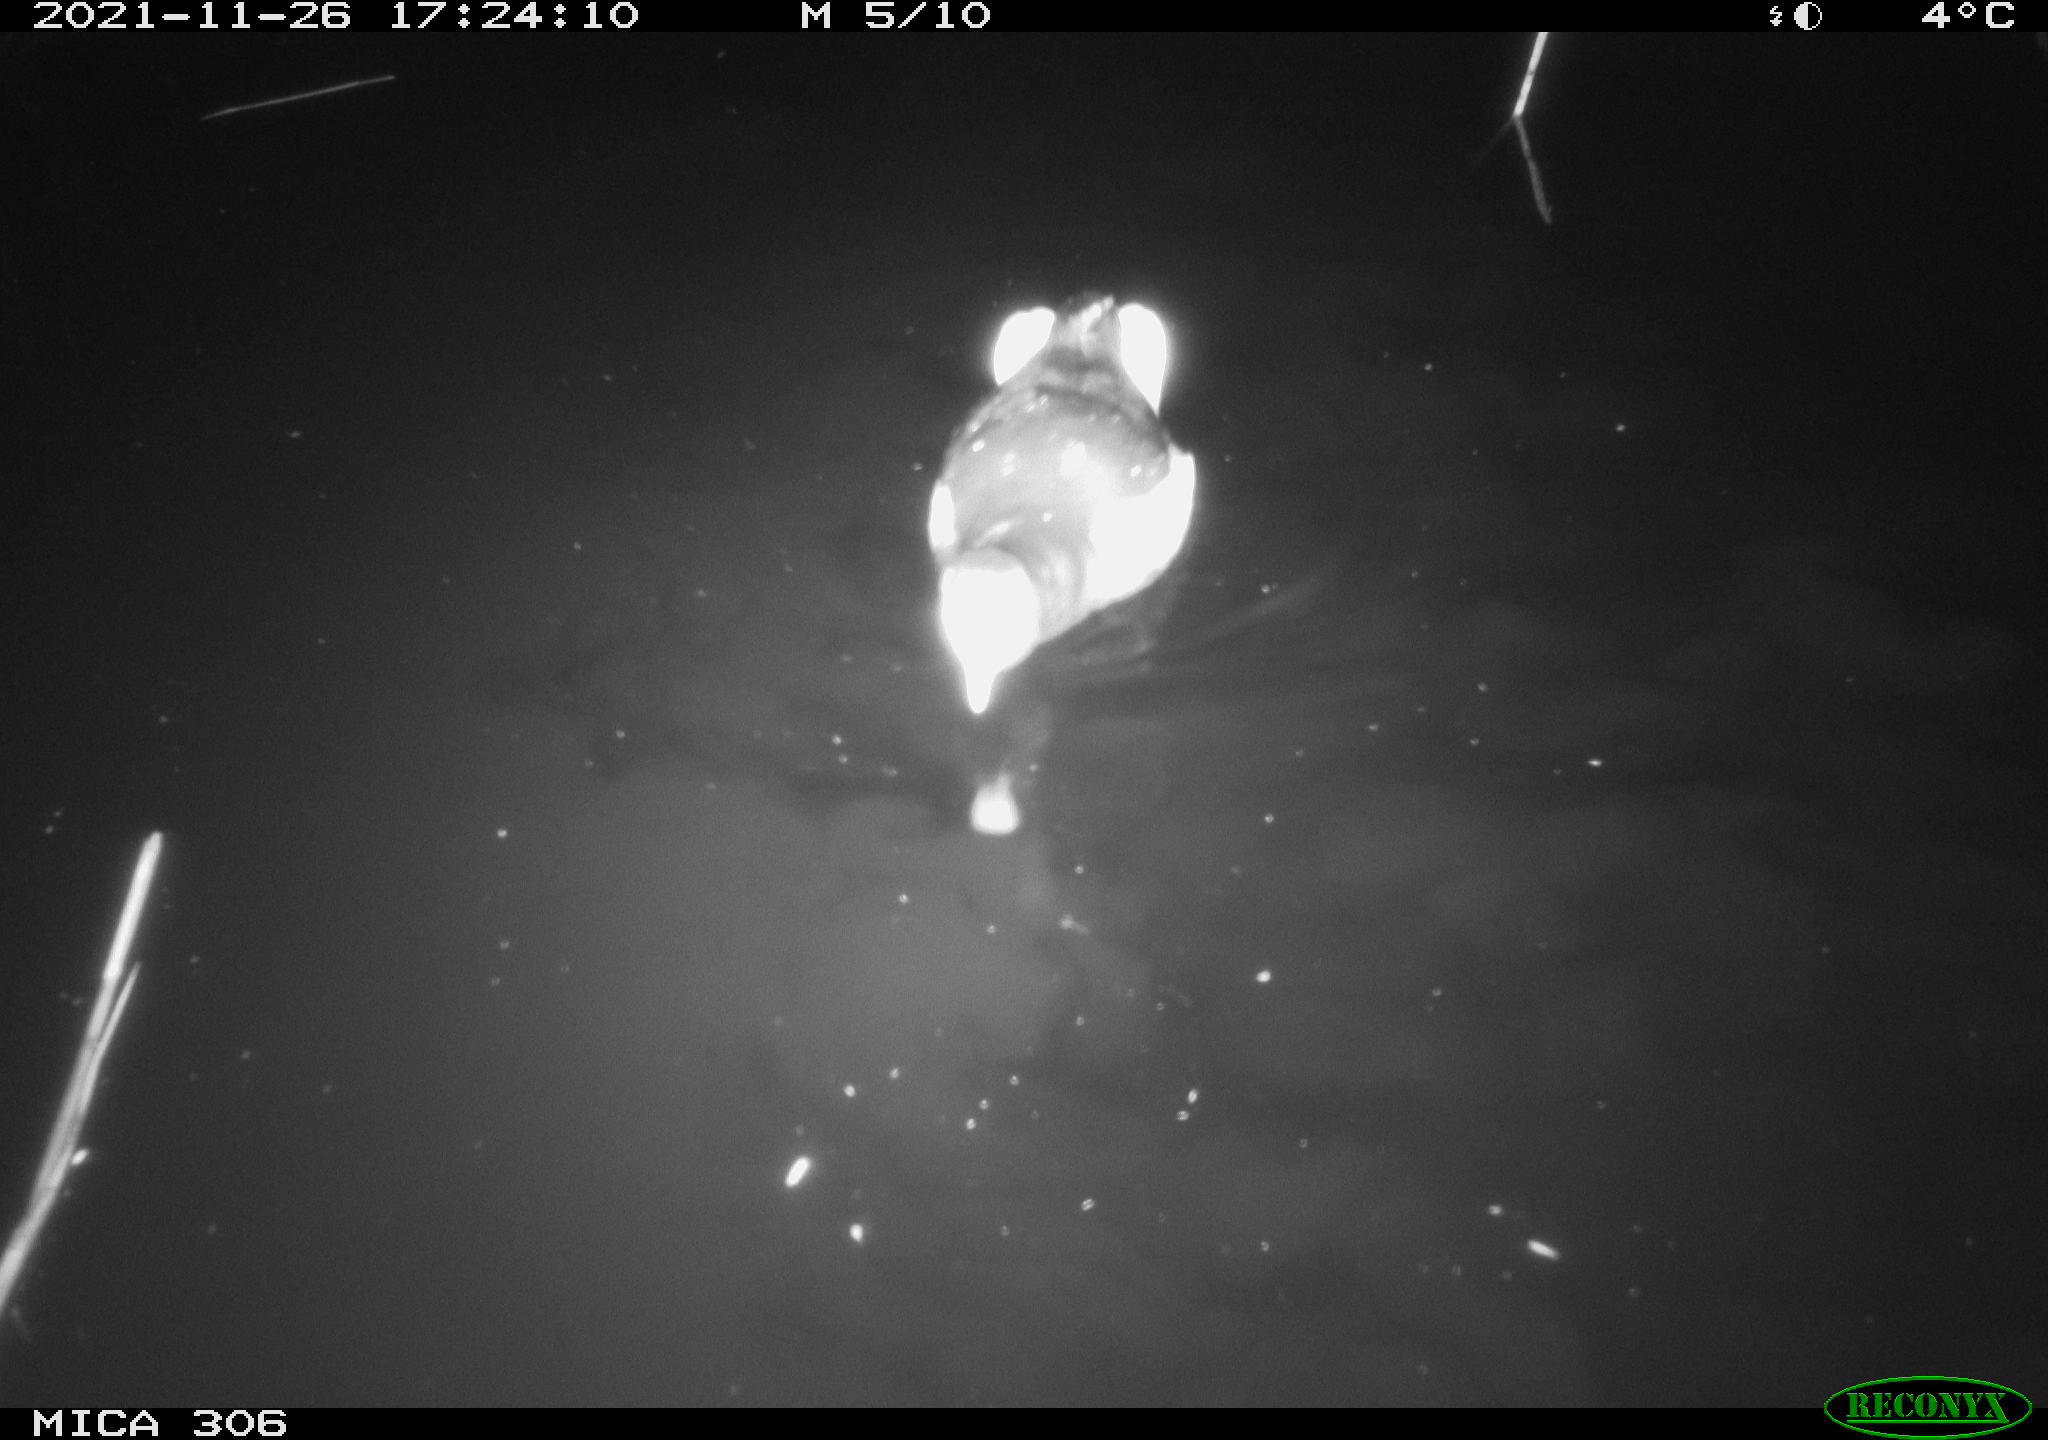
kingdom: Animalia
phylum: Chordata
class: Aves
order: Gruiformes
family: Rallidae
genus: Fulica
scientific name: Fulica atra
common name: Eurasian coot
